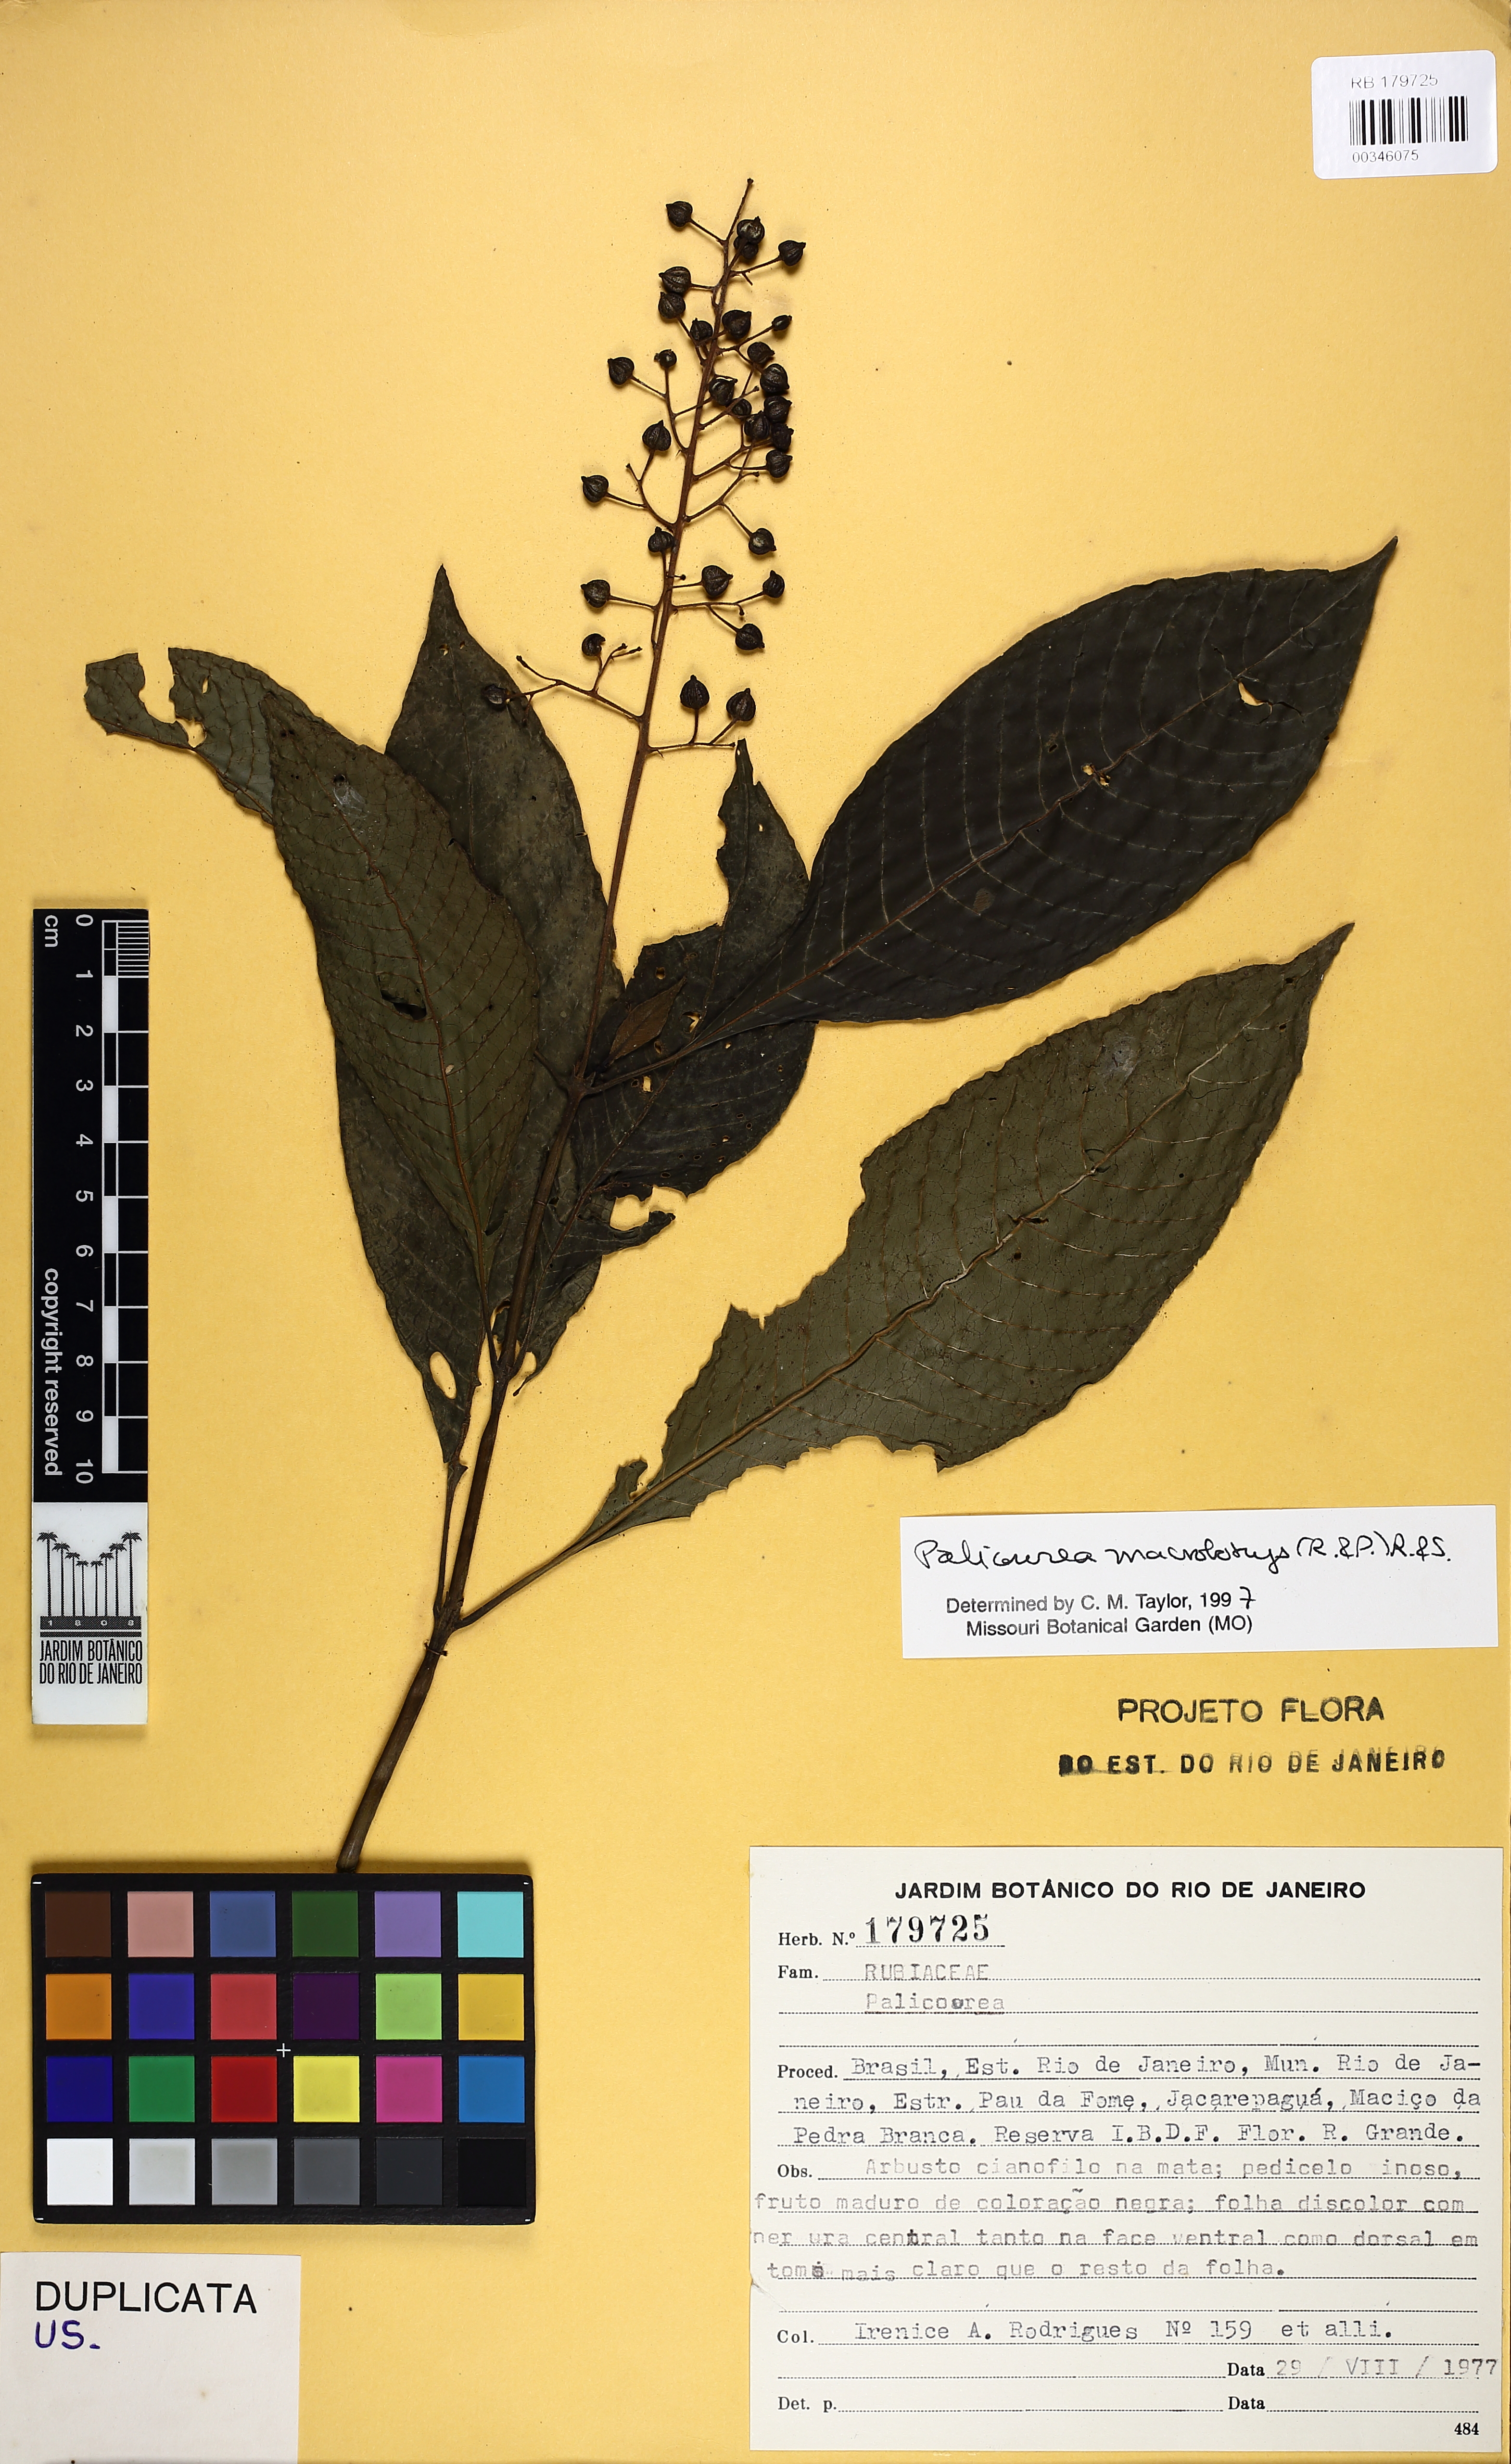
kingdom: Plantae
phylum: Tracheophyta
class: Magnoliopsida
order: Gentianales
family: Rubiaceae
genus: Palicourea
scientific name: Palicourea macrobotrys
